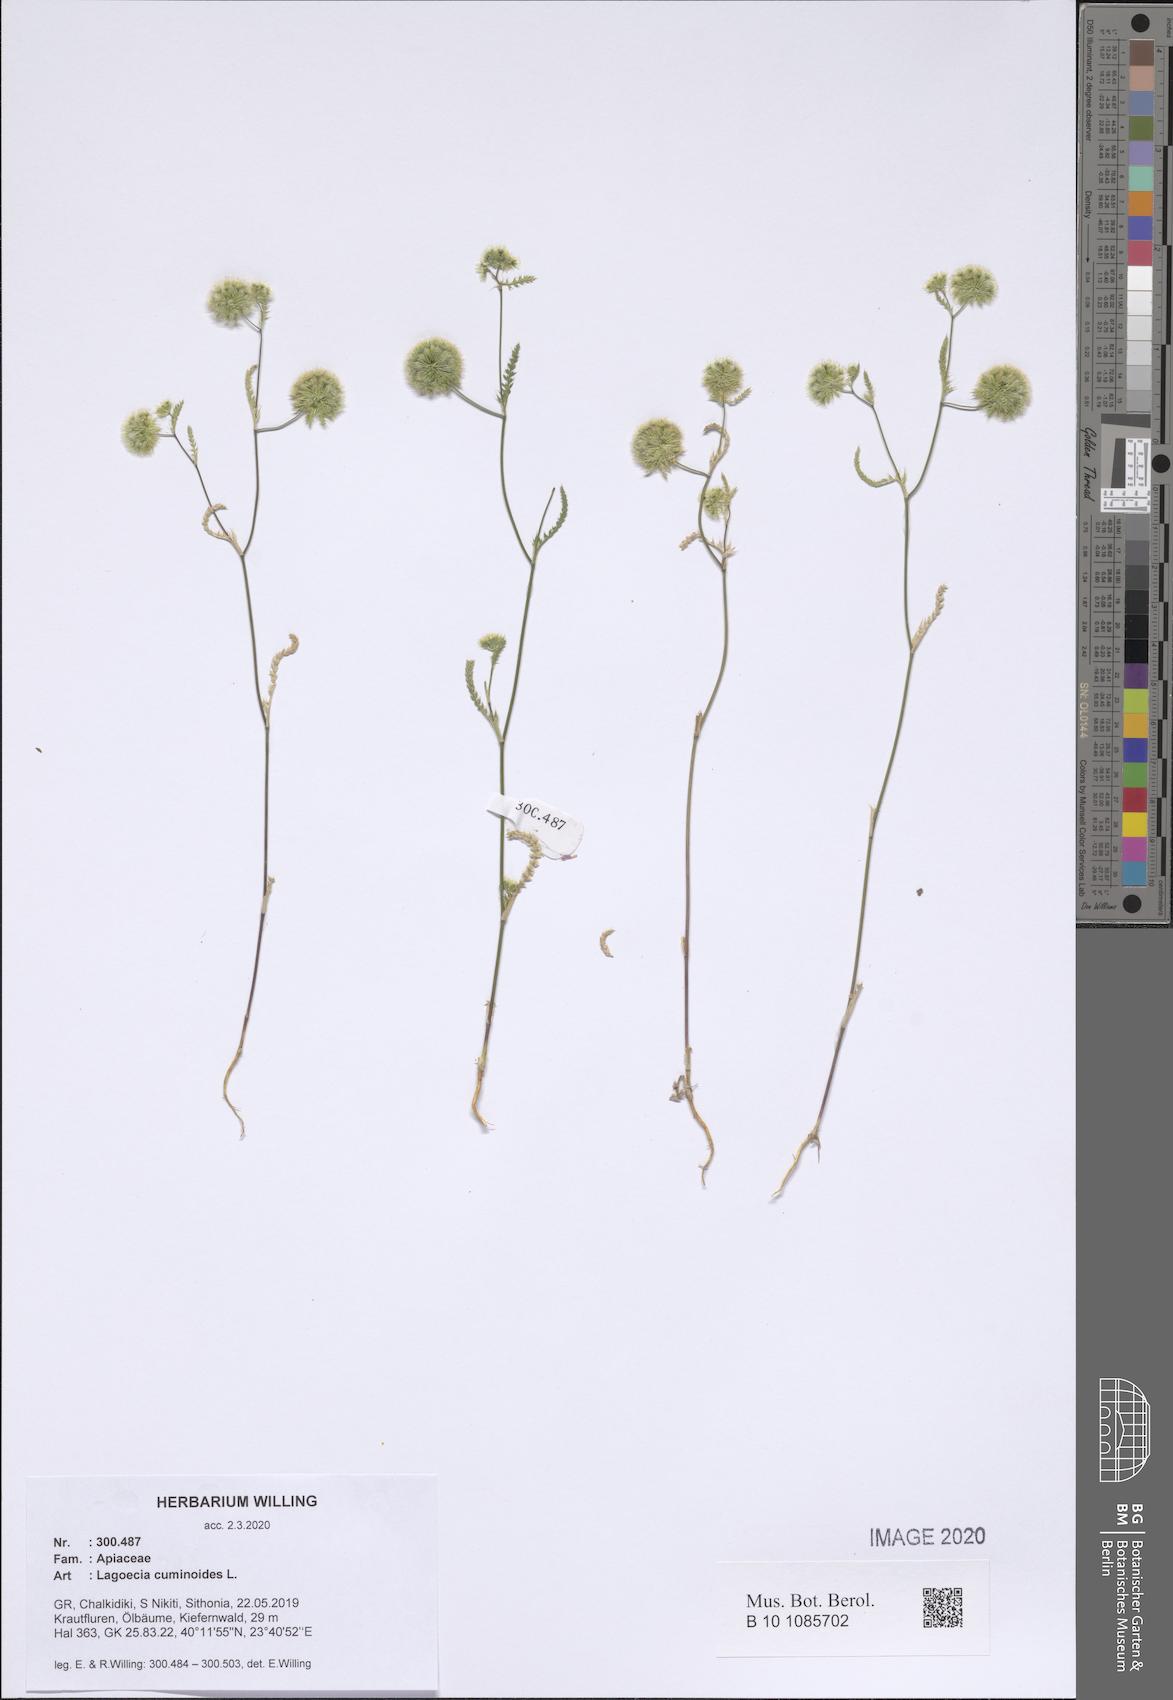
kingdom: Plantae
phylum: Tracheophyta
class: Magnoliopsida
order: Apiales
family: Apiaceae
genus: Lagoecia
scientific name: Lagoecia cuminoides
